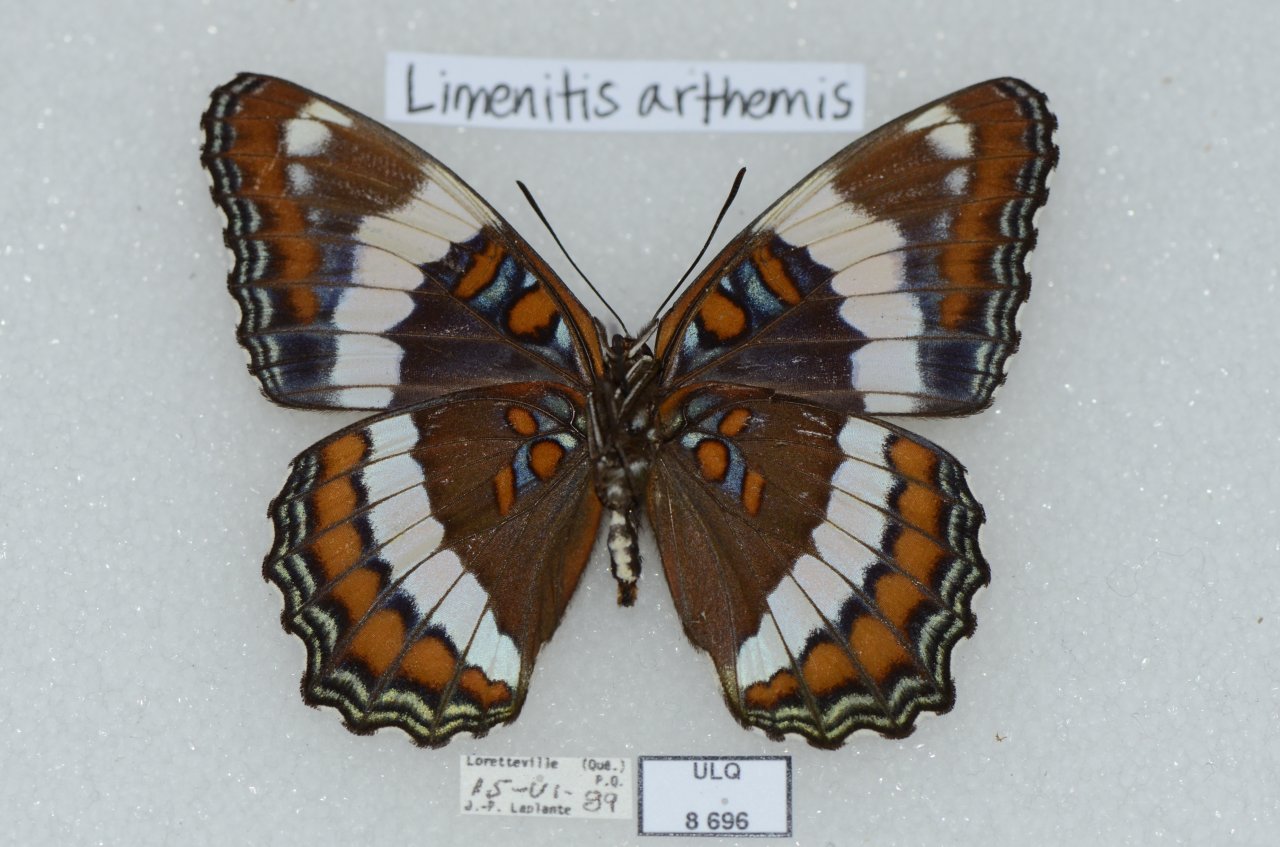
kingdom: Animalia
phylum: Arthropoda
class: Insecta
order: Lepidoptera
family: Nymphalidae
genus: Limenitis
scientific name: Limenitis arthemis
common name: Red-spotted Admiral
